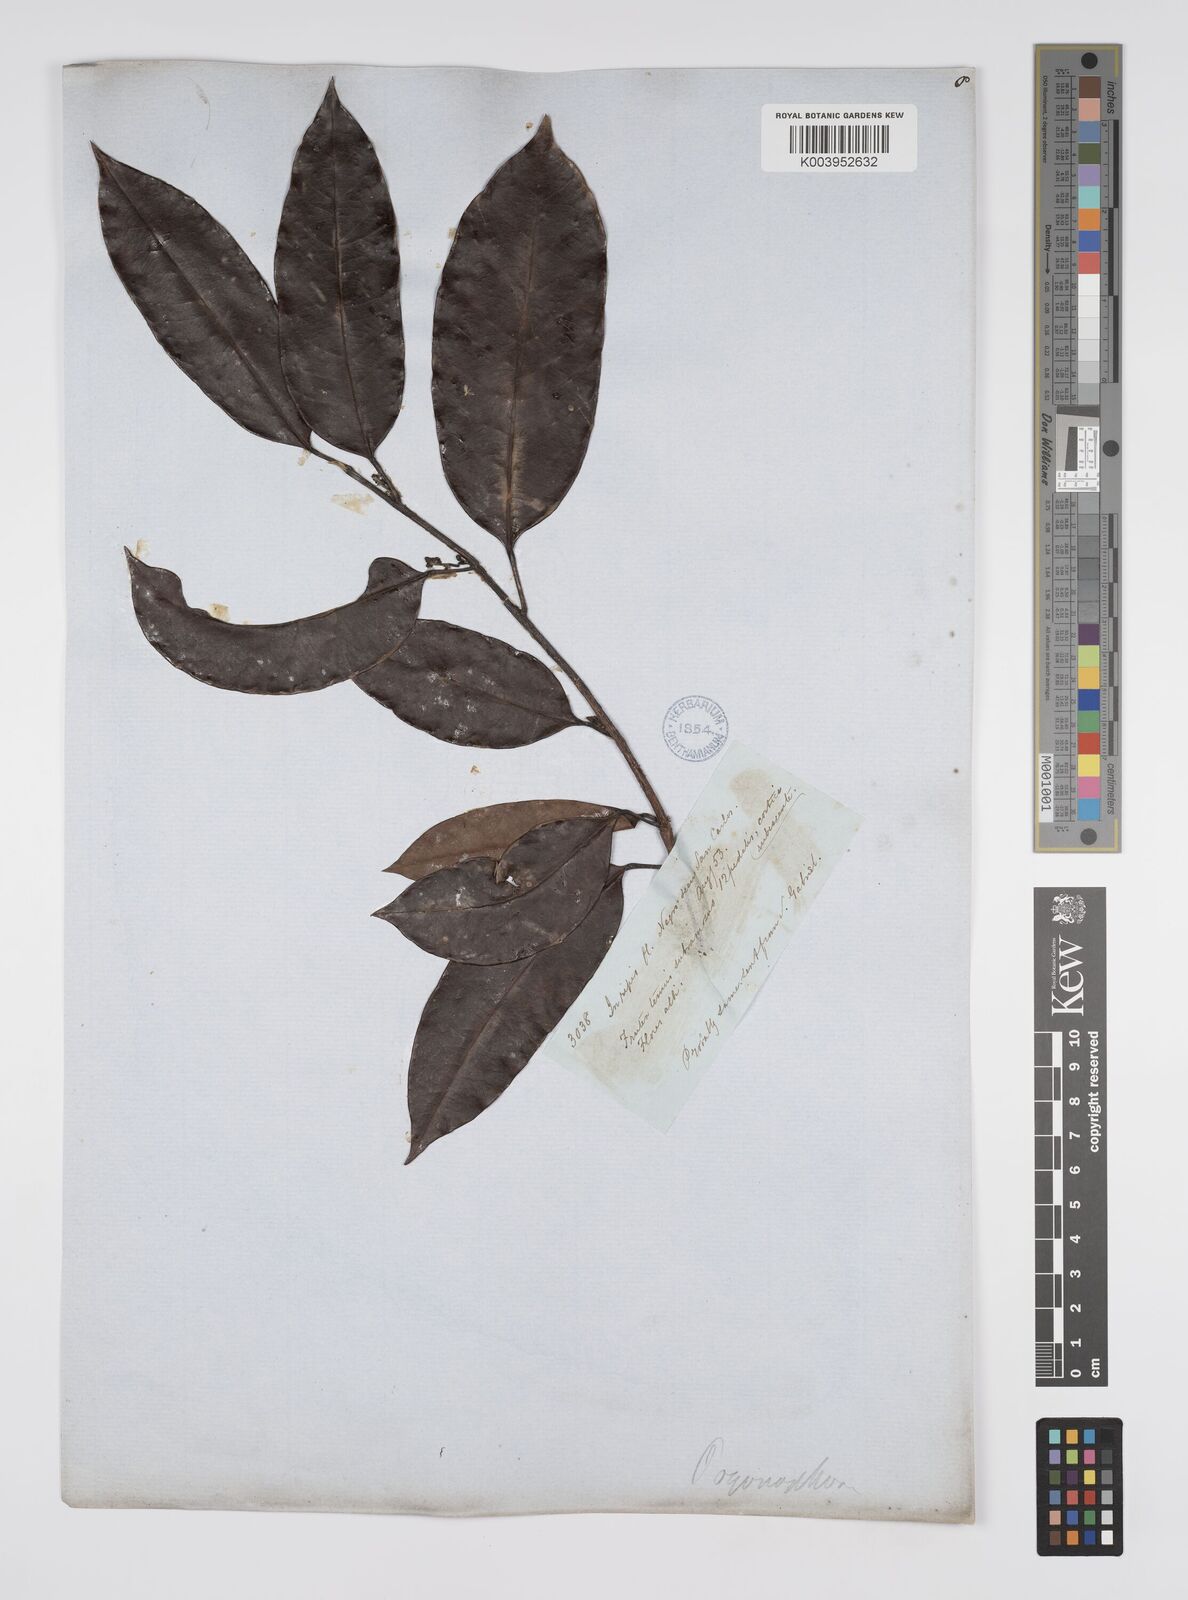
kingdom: Plantae
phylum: Tracheophyta
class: Magnoliopsida
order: Malpighiales
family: Peraceae
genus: Pogonophora
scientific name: Pogonophora schomburgkiana
